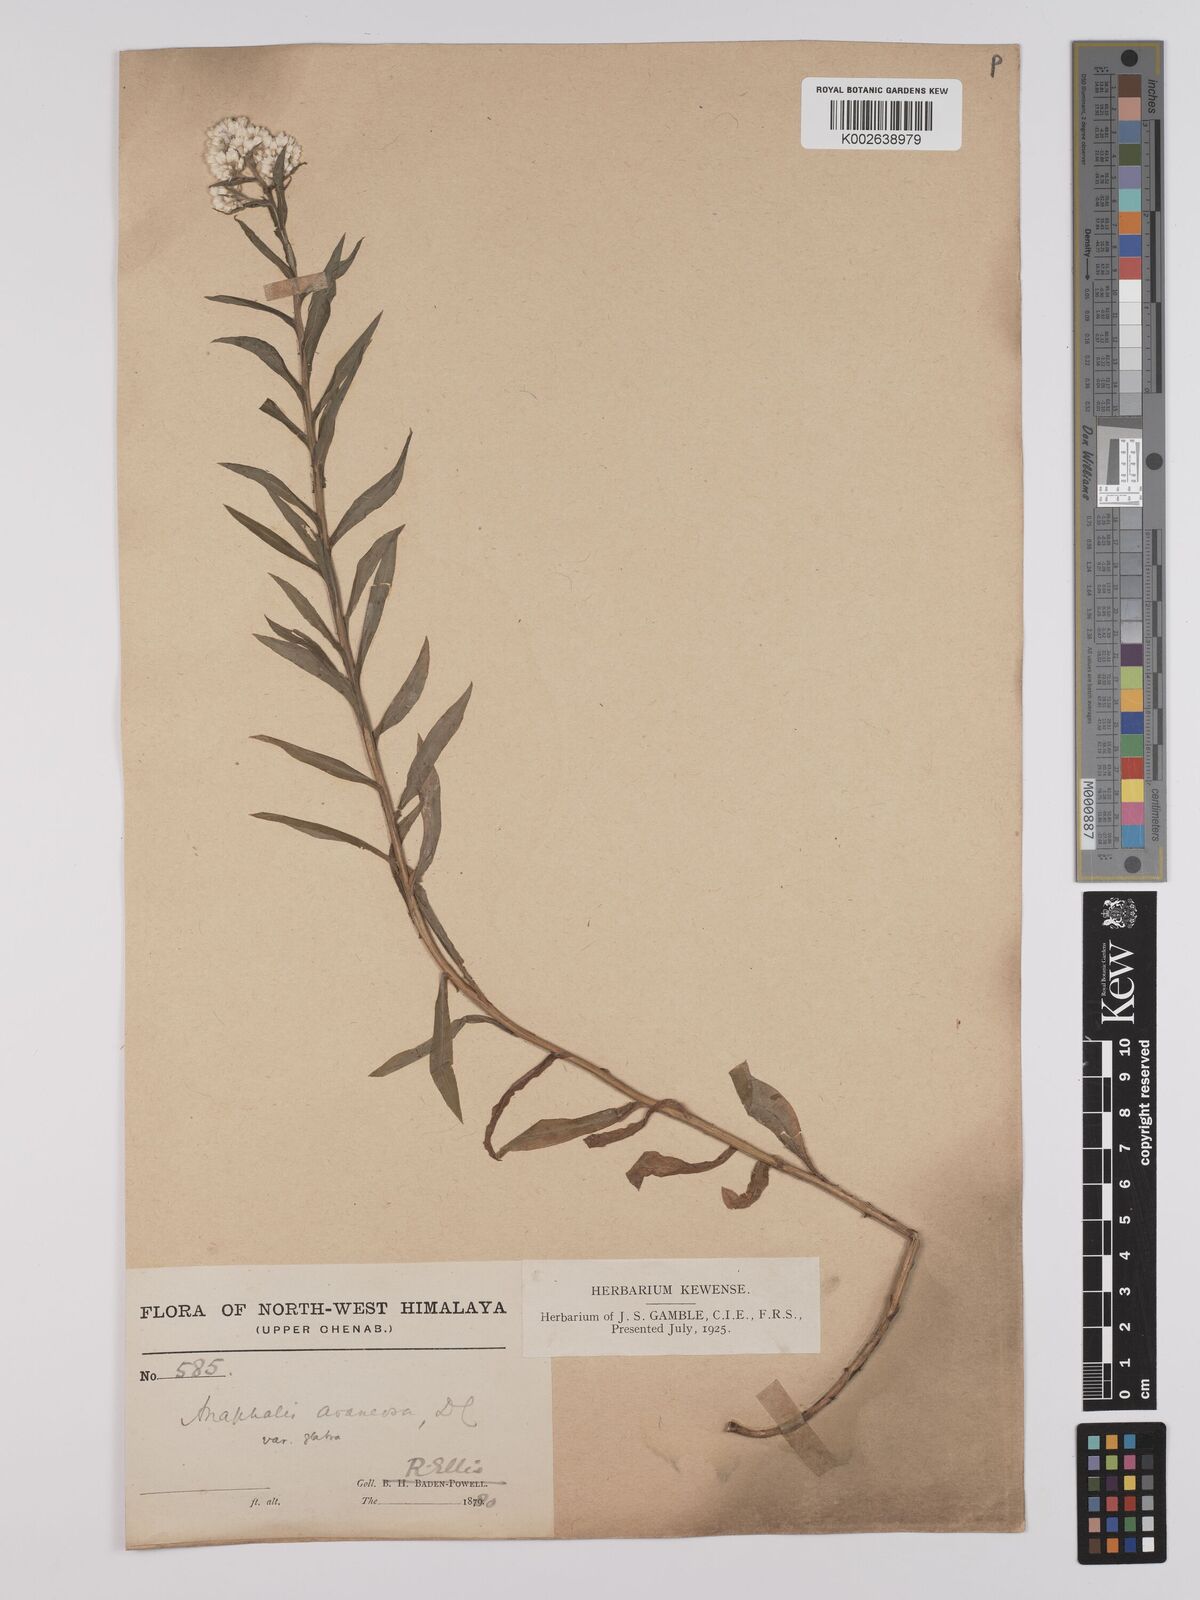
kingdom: Plantae
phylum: Tracheophyta
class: Magnoliopsida
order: Asterales
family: Asteraceae
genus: Anaphalis
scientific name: Anaphalis busua
